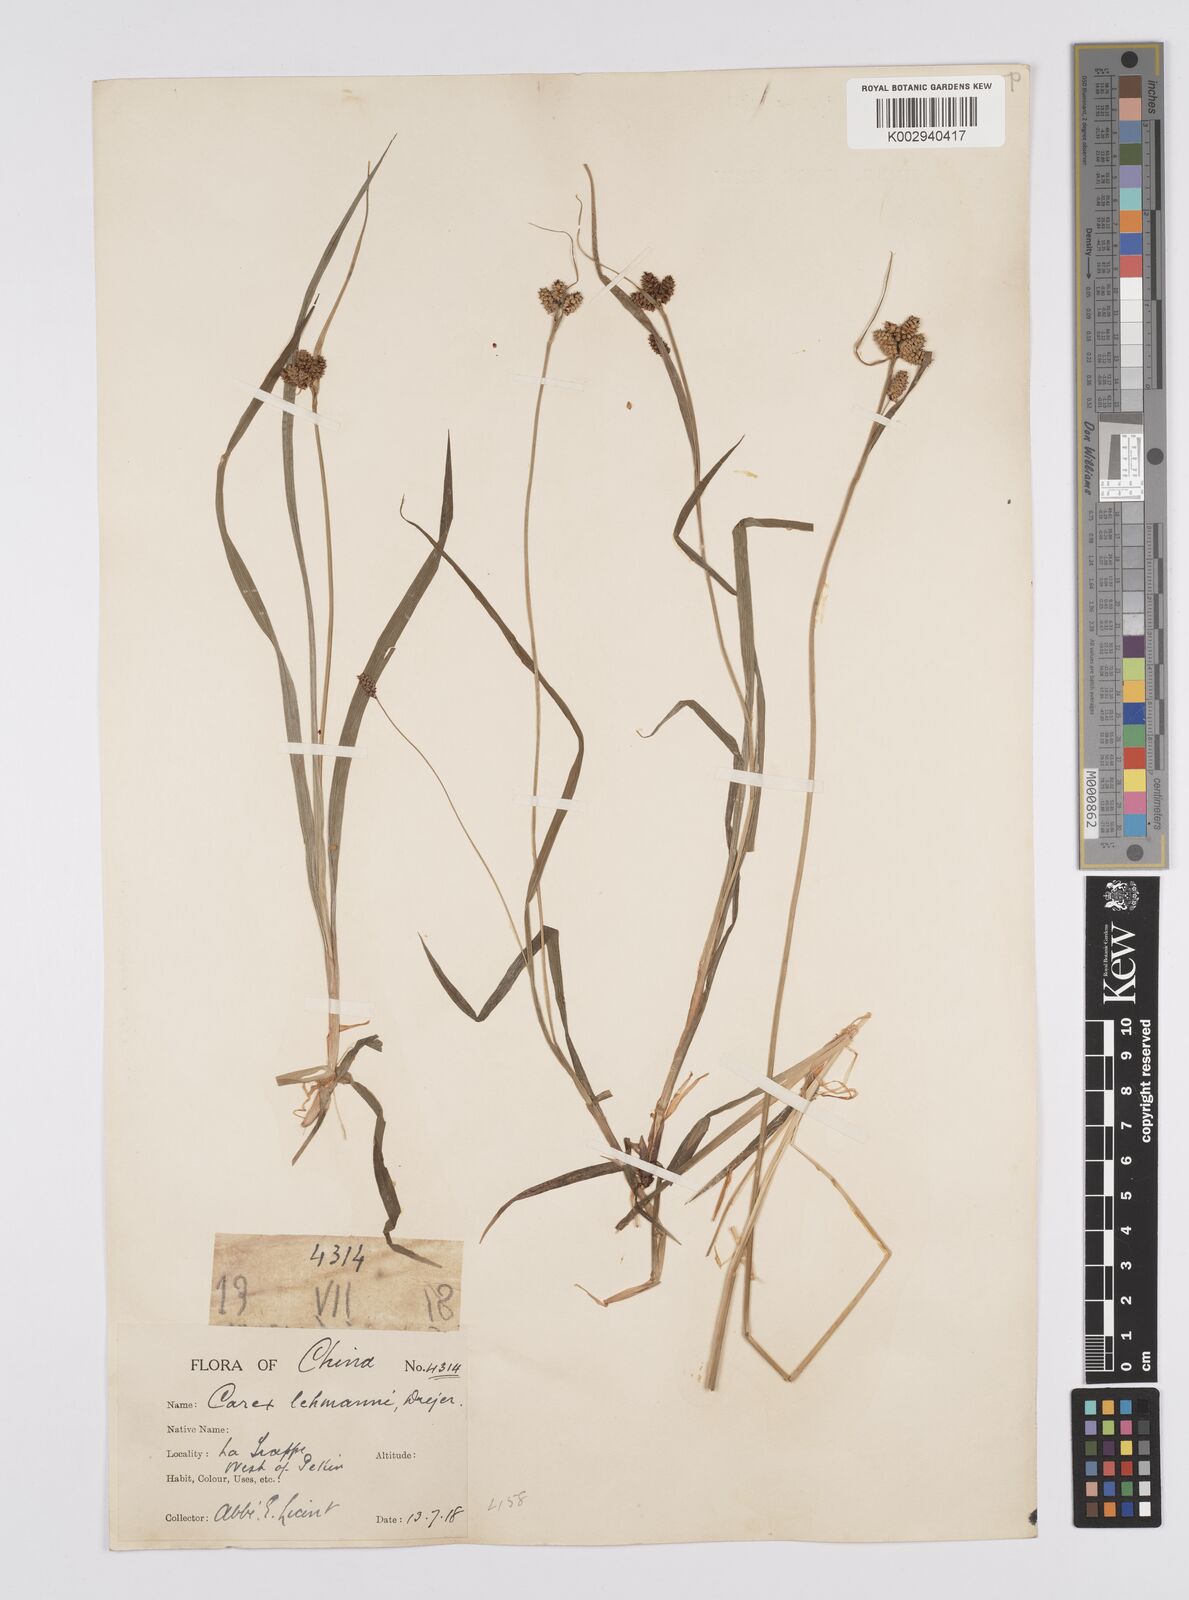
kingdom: Plantae
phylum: Tracheophyta
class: Liliopsida
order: Poales
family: Cyperaceae
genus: Carex
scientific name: Carex lehmannii
